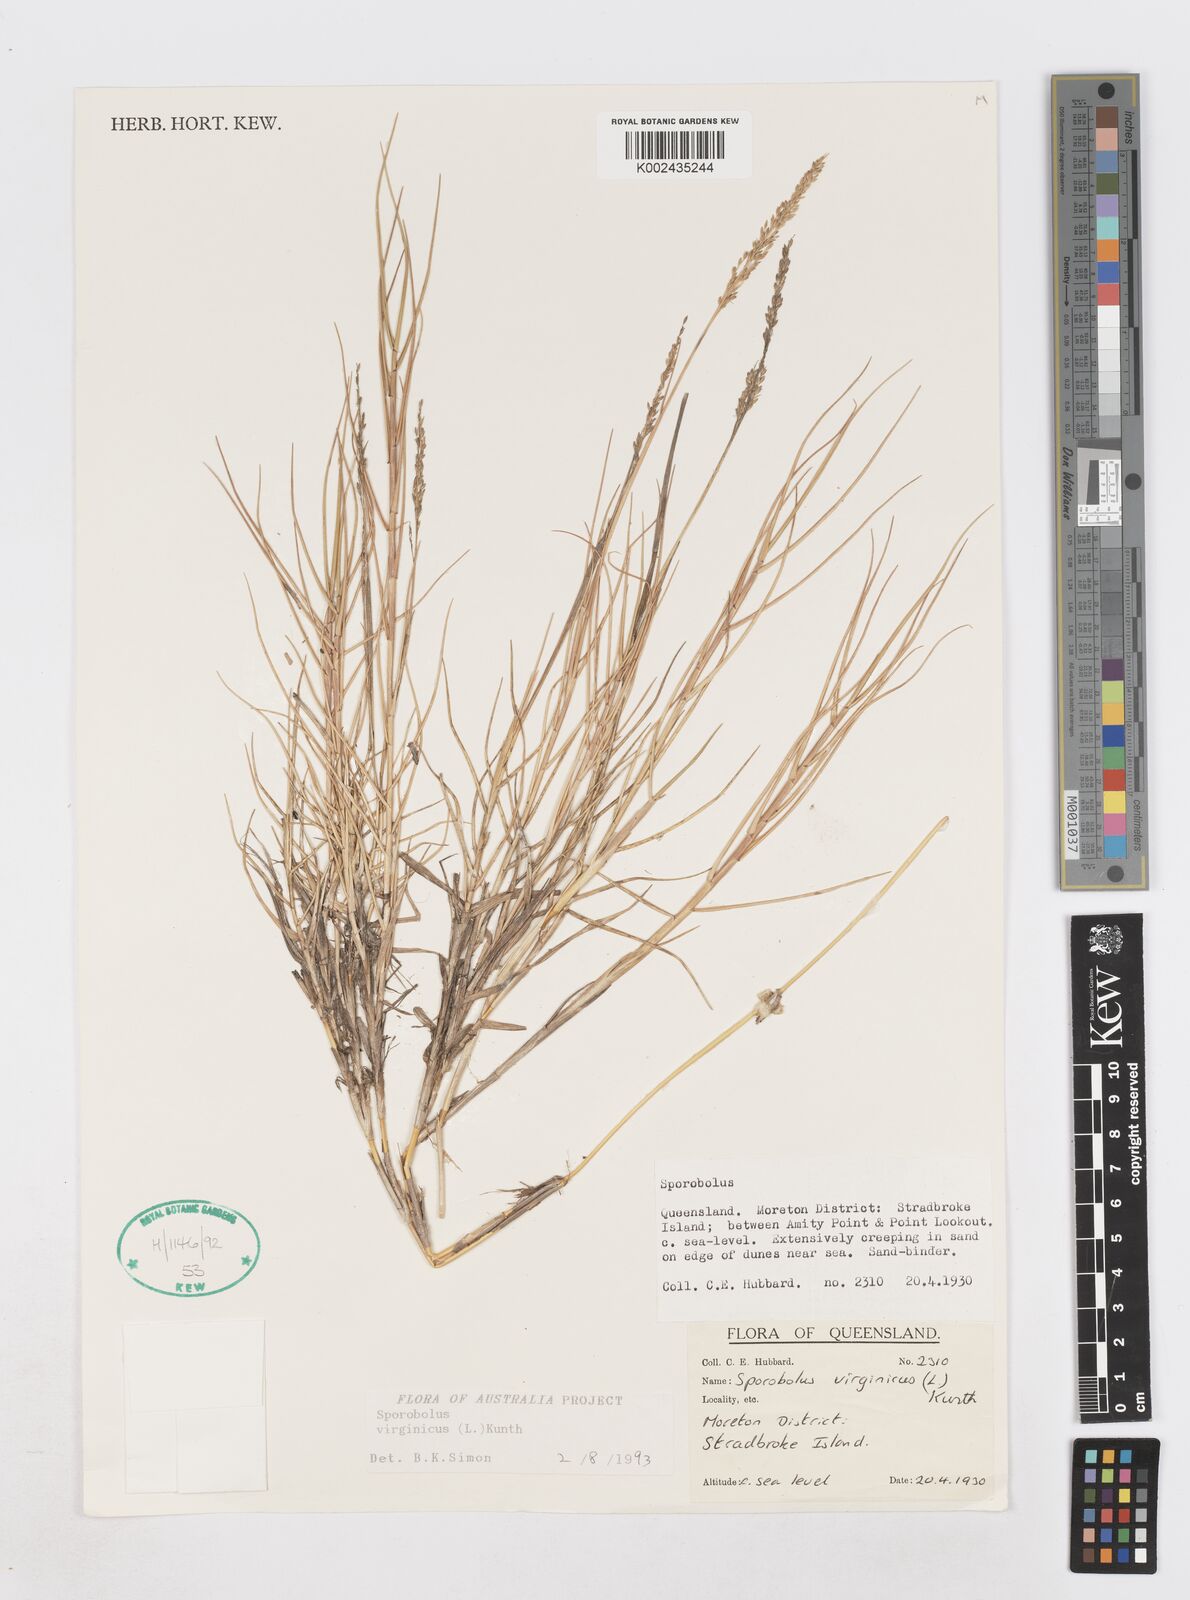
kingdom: Plantae
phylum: Tracheophyta
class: Liliopsida
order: Poales
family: Poaceae
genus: Sporobolus
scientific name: Sporobolus virginicus
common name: Beach dropseed
